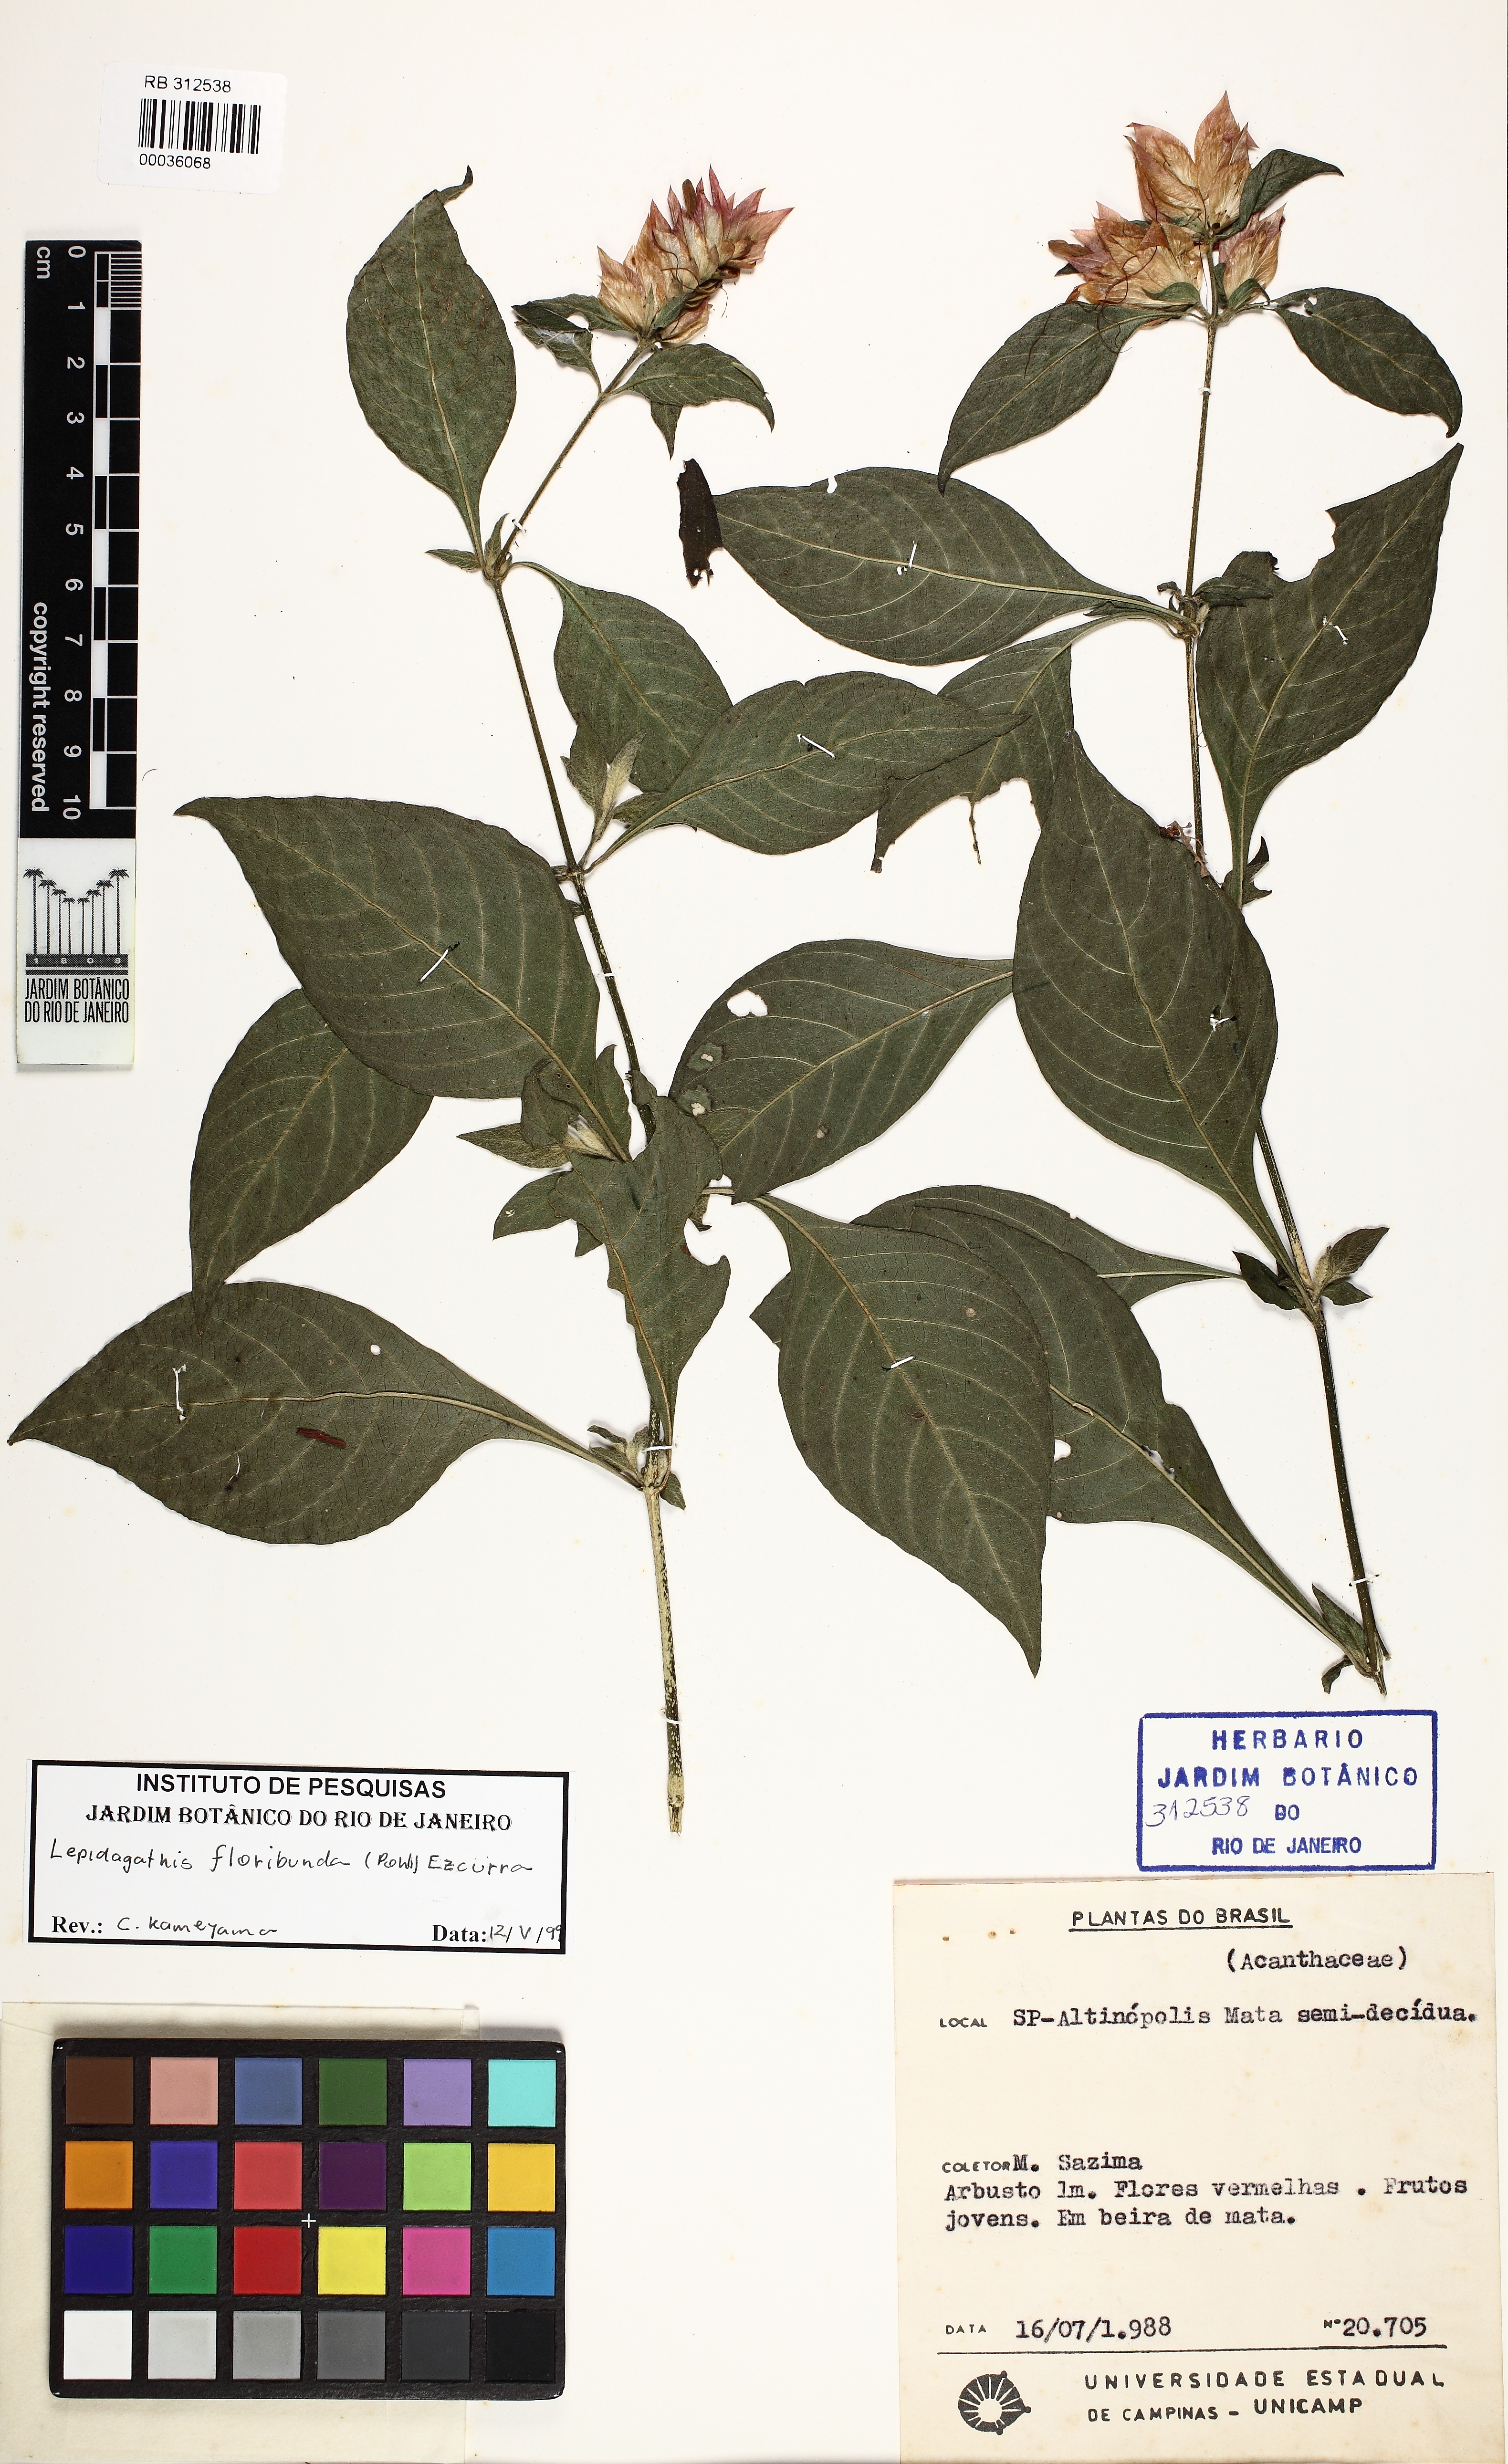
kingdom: Plantae
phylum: Tracheophyta
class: Magnoliopsida
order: Lamiales
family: Acanthaceae
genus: Lepidagathis
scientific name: Lepidagathis floribunda
